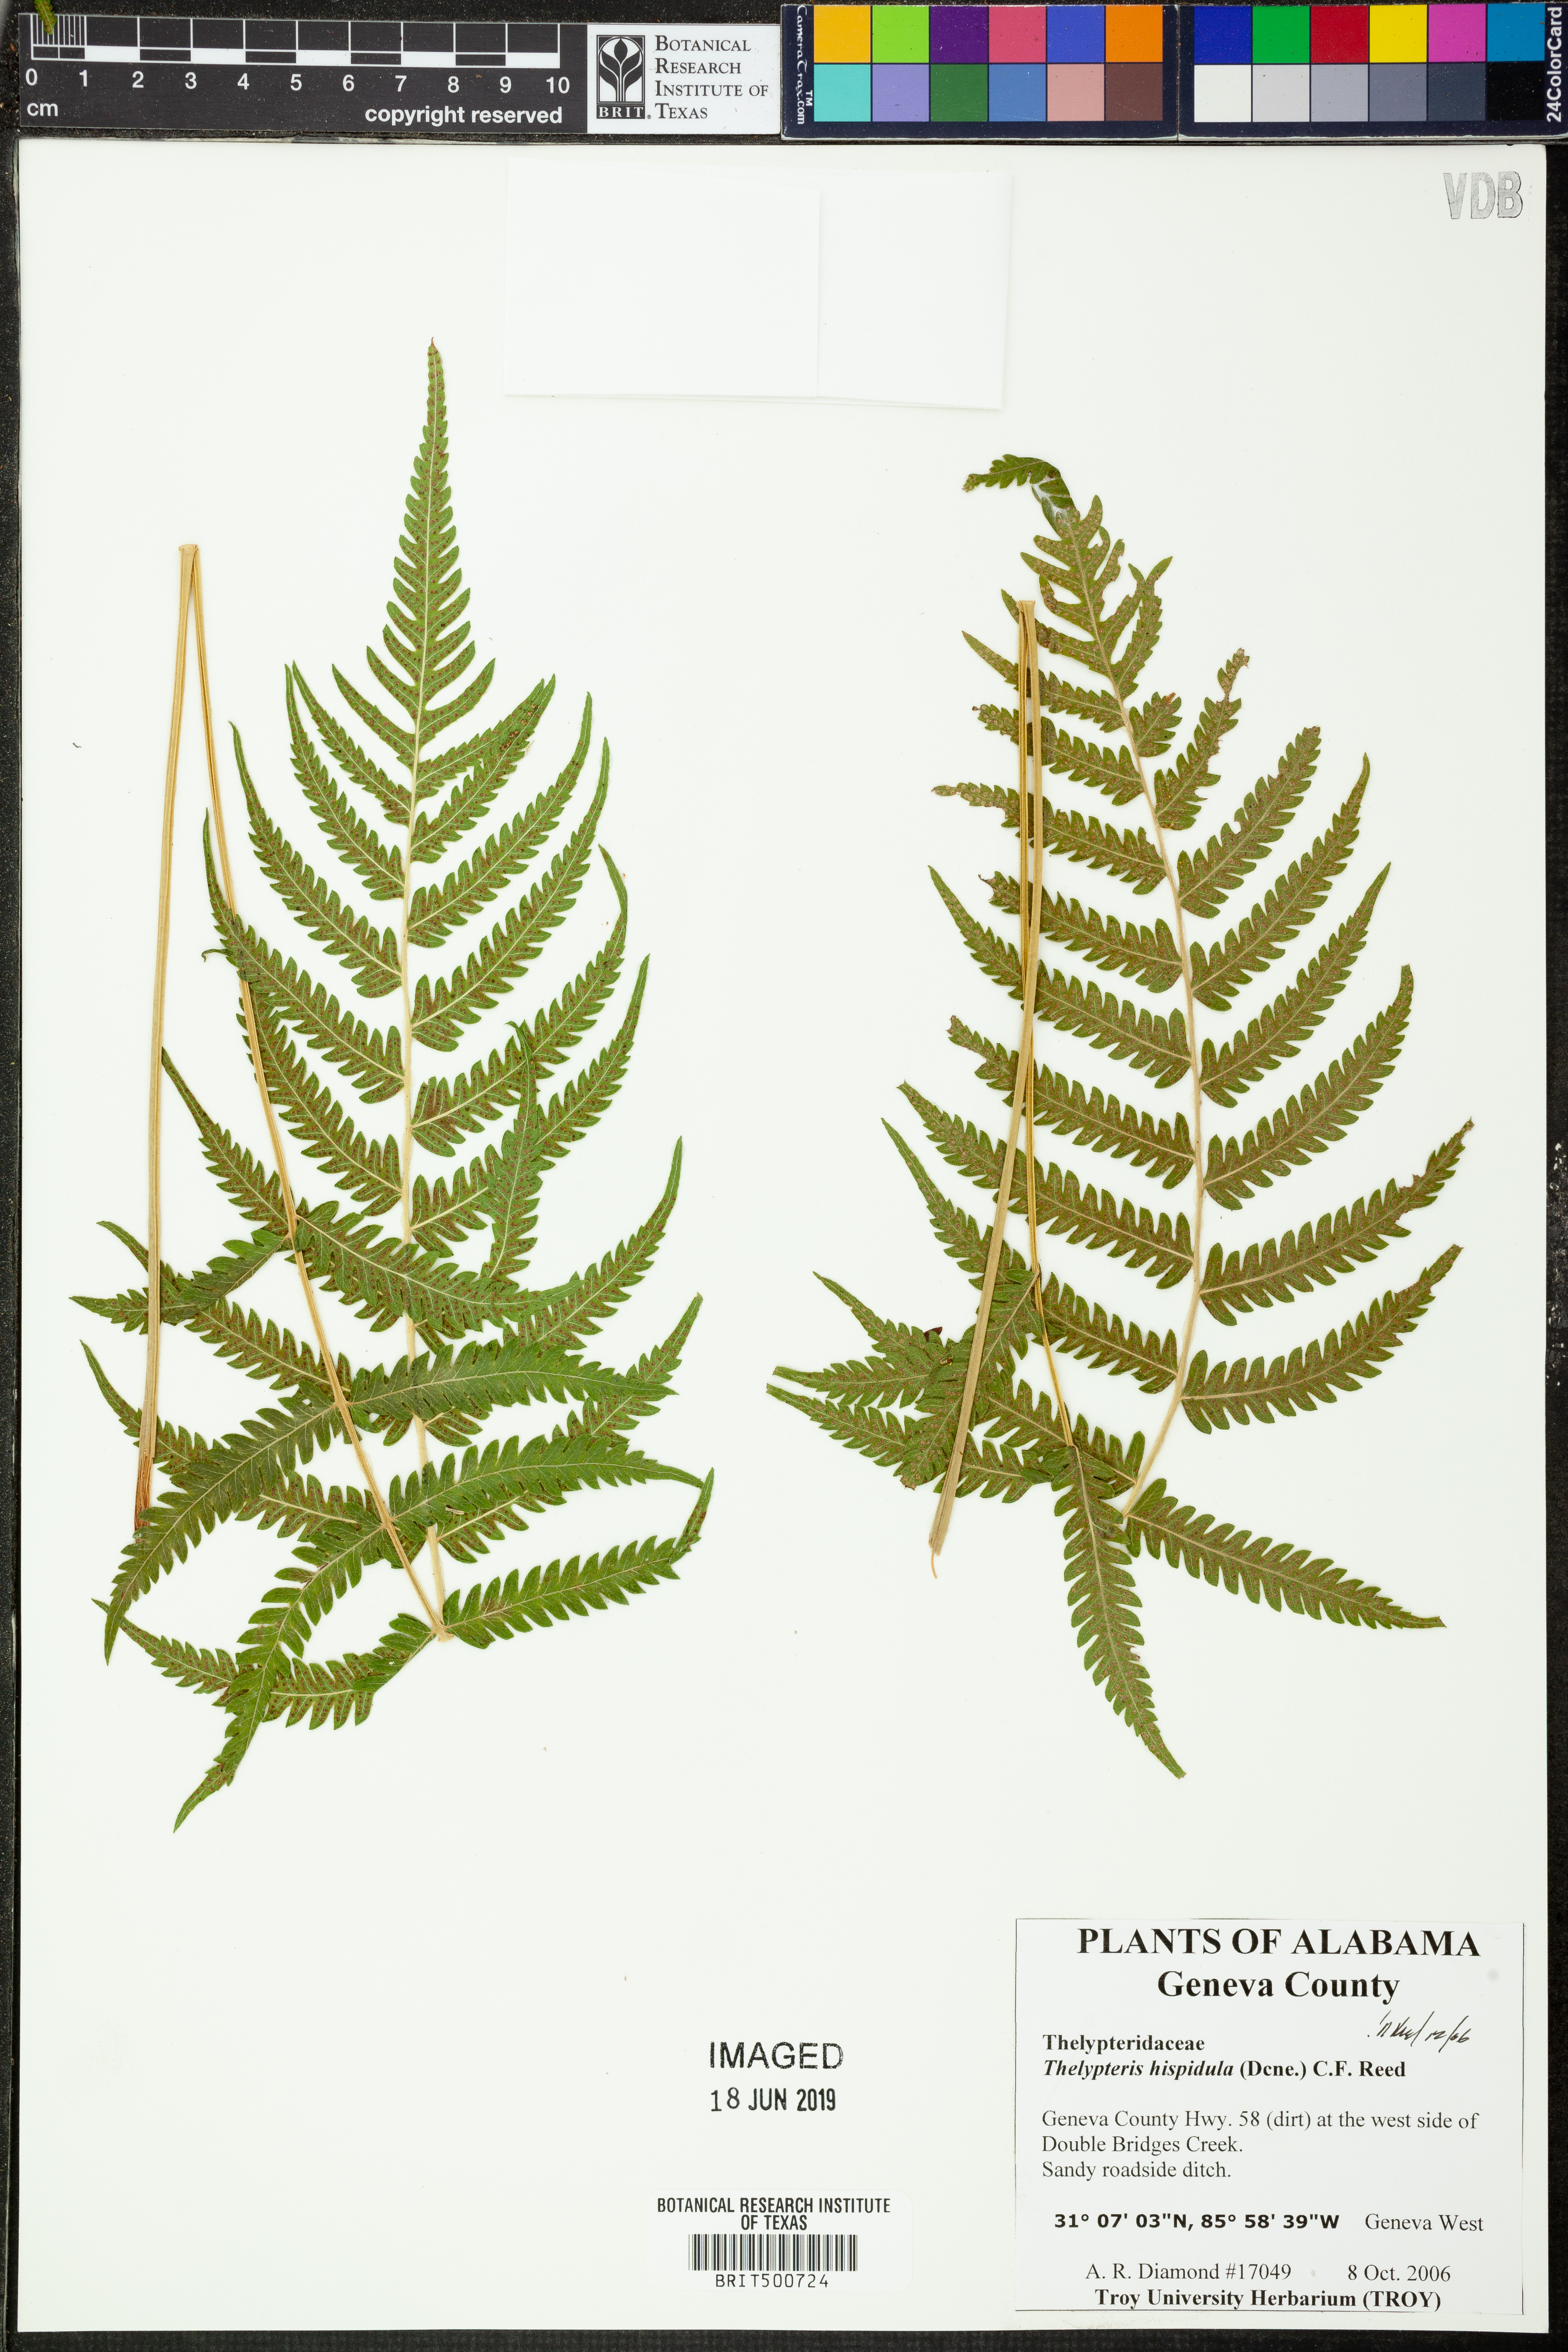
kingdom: Plantae
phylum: Tracheophyta
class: Polypodiopsida
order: Polypodiales
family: Thelypteridaceae
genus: Christella
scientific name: Christella hispidula
